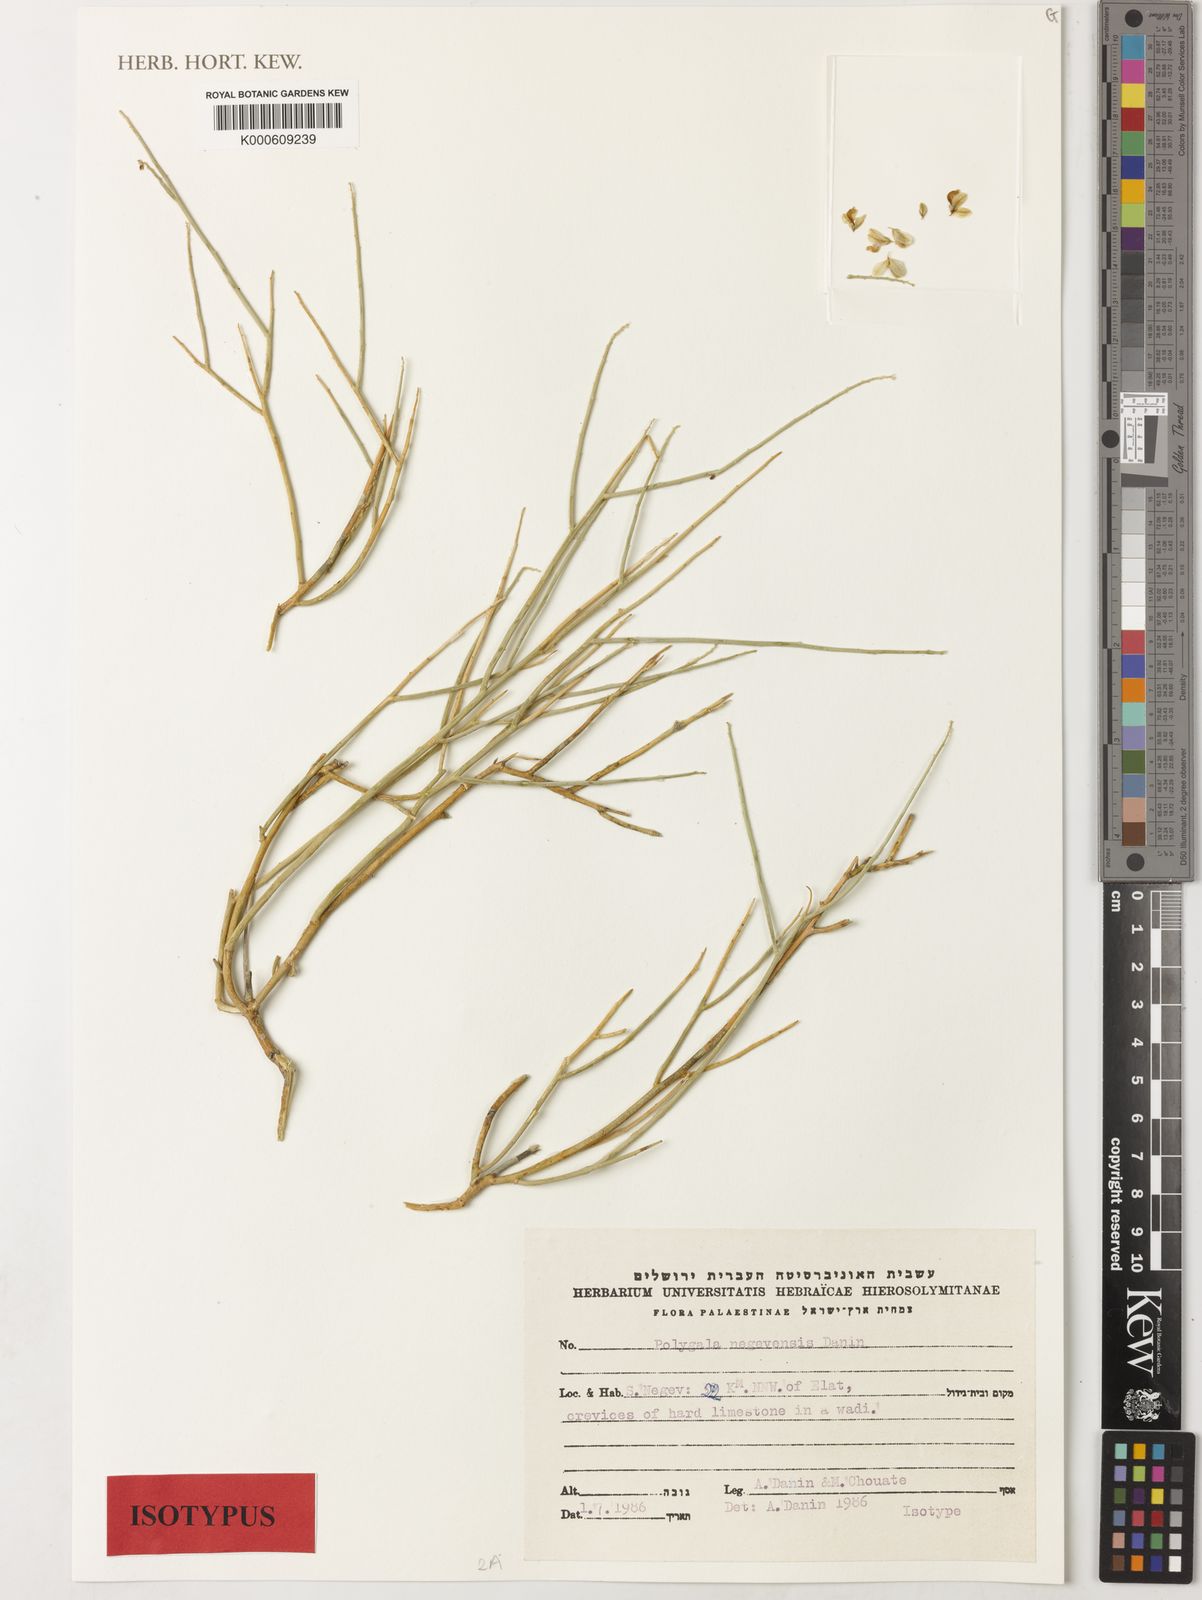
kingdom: Plantae
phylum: Tracheophyta
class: Magnoliopsida
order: Fabales
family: Polygalaceae
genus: Polygala
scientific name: Polygala sinaica
